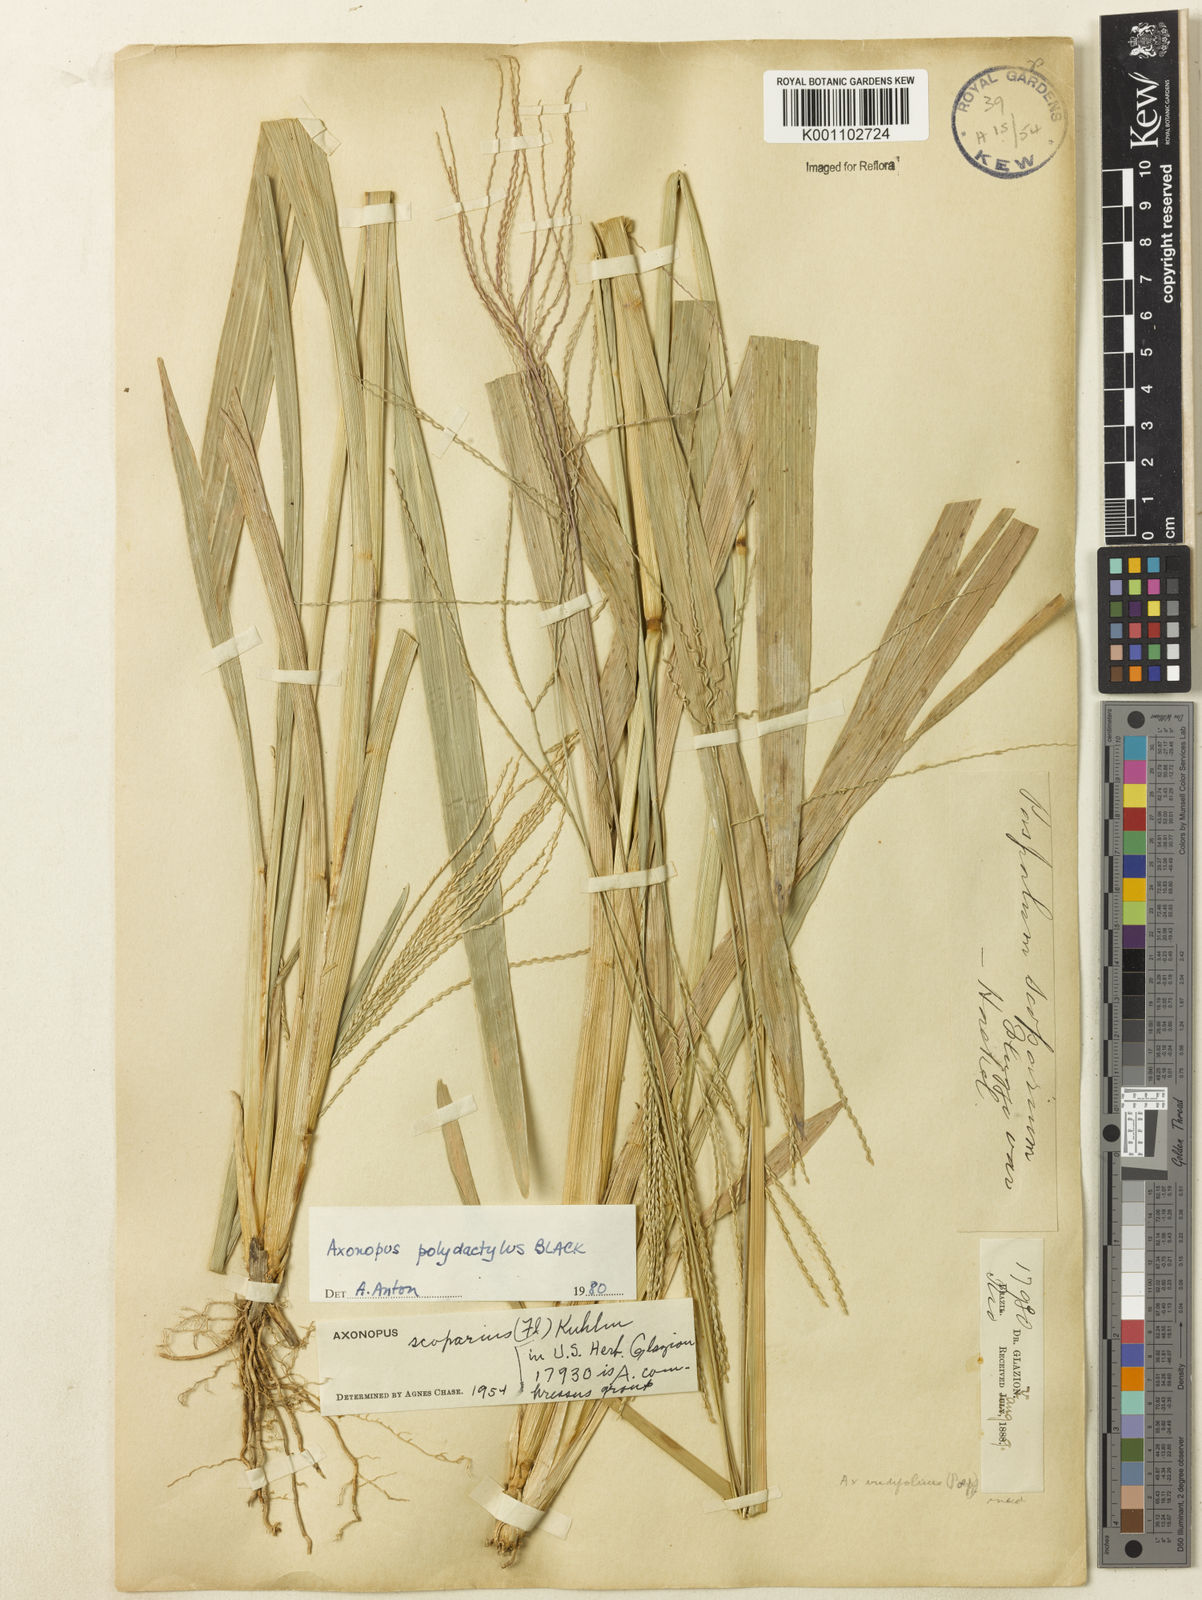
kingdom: Plantae
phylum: Tracheophyta
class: Liliopsida
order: Poales
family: Poaceae
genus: Axonopus
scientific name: Axonopus polystachyus
